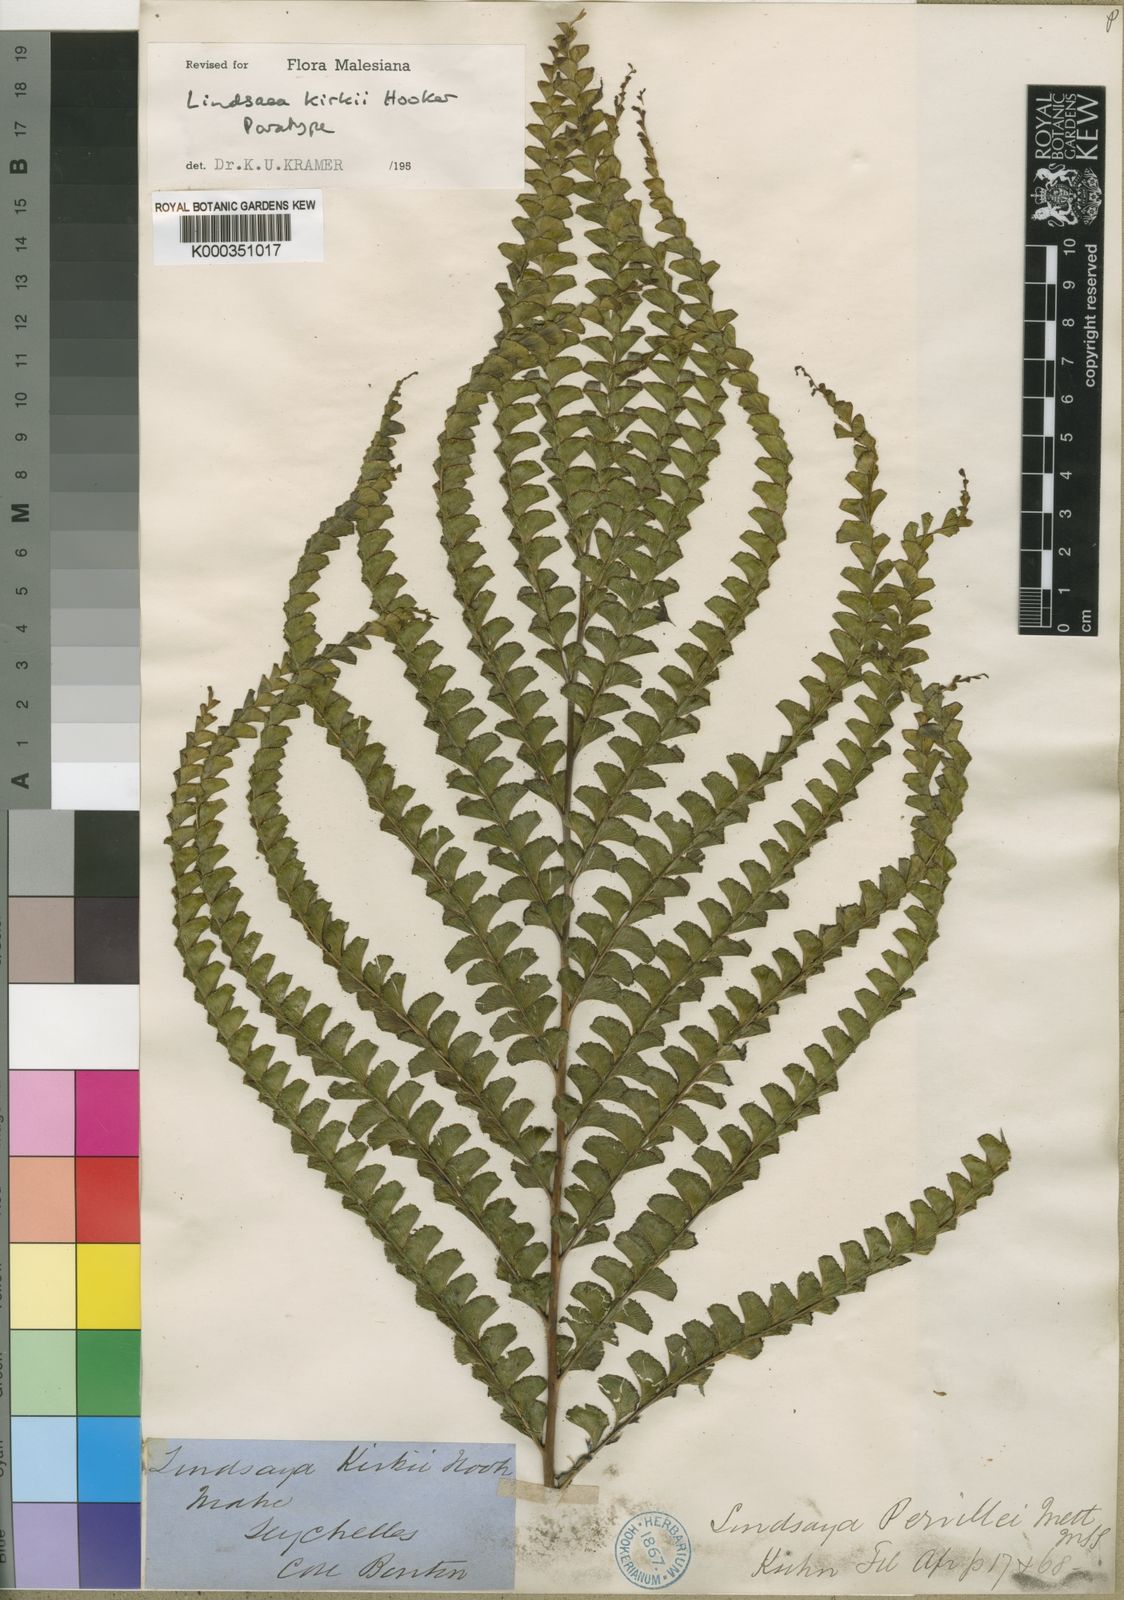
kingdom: Plantae
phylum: Tracheophyta
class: Polypodiopsida
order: Polypodiales
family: Lindsaeaceae
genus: Nesolindsaea
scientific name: Nesolindsaea kirkii
